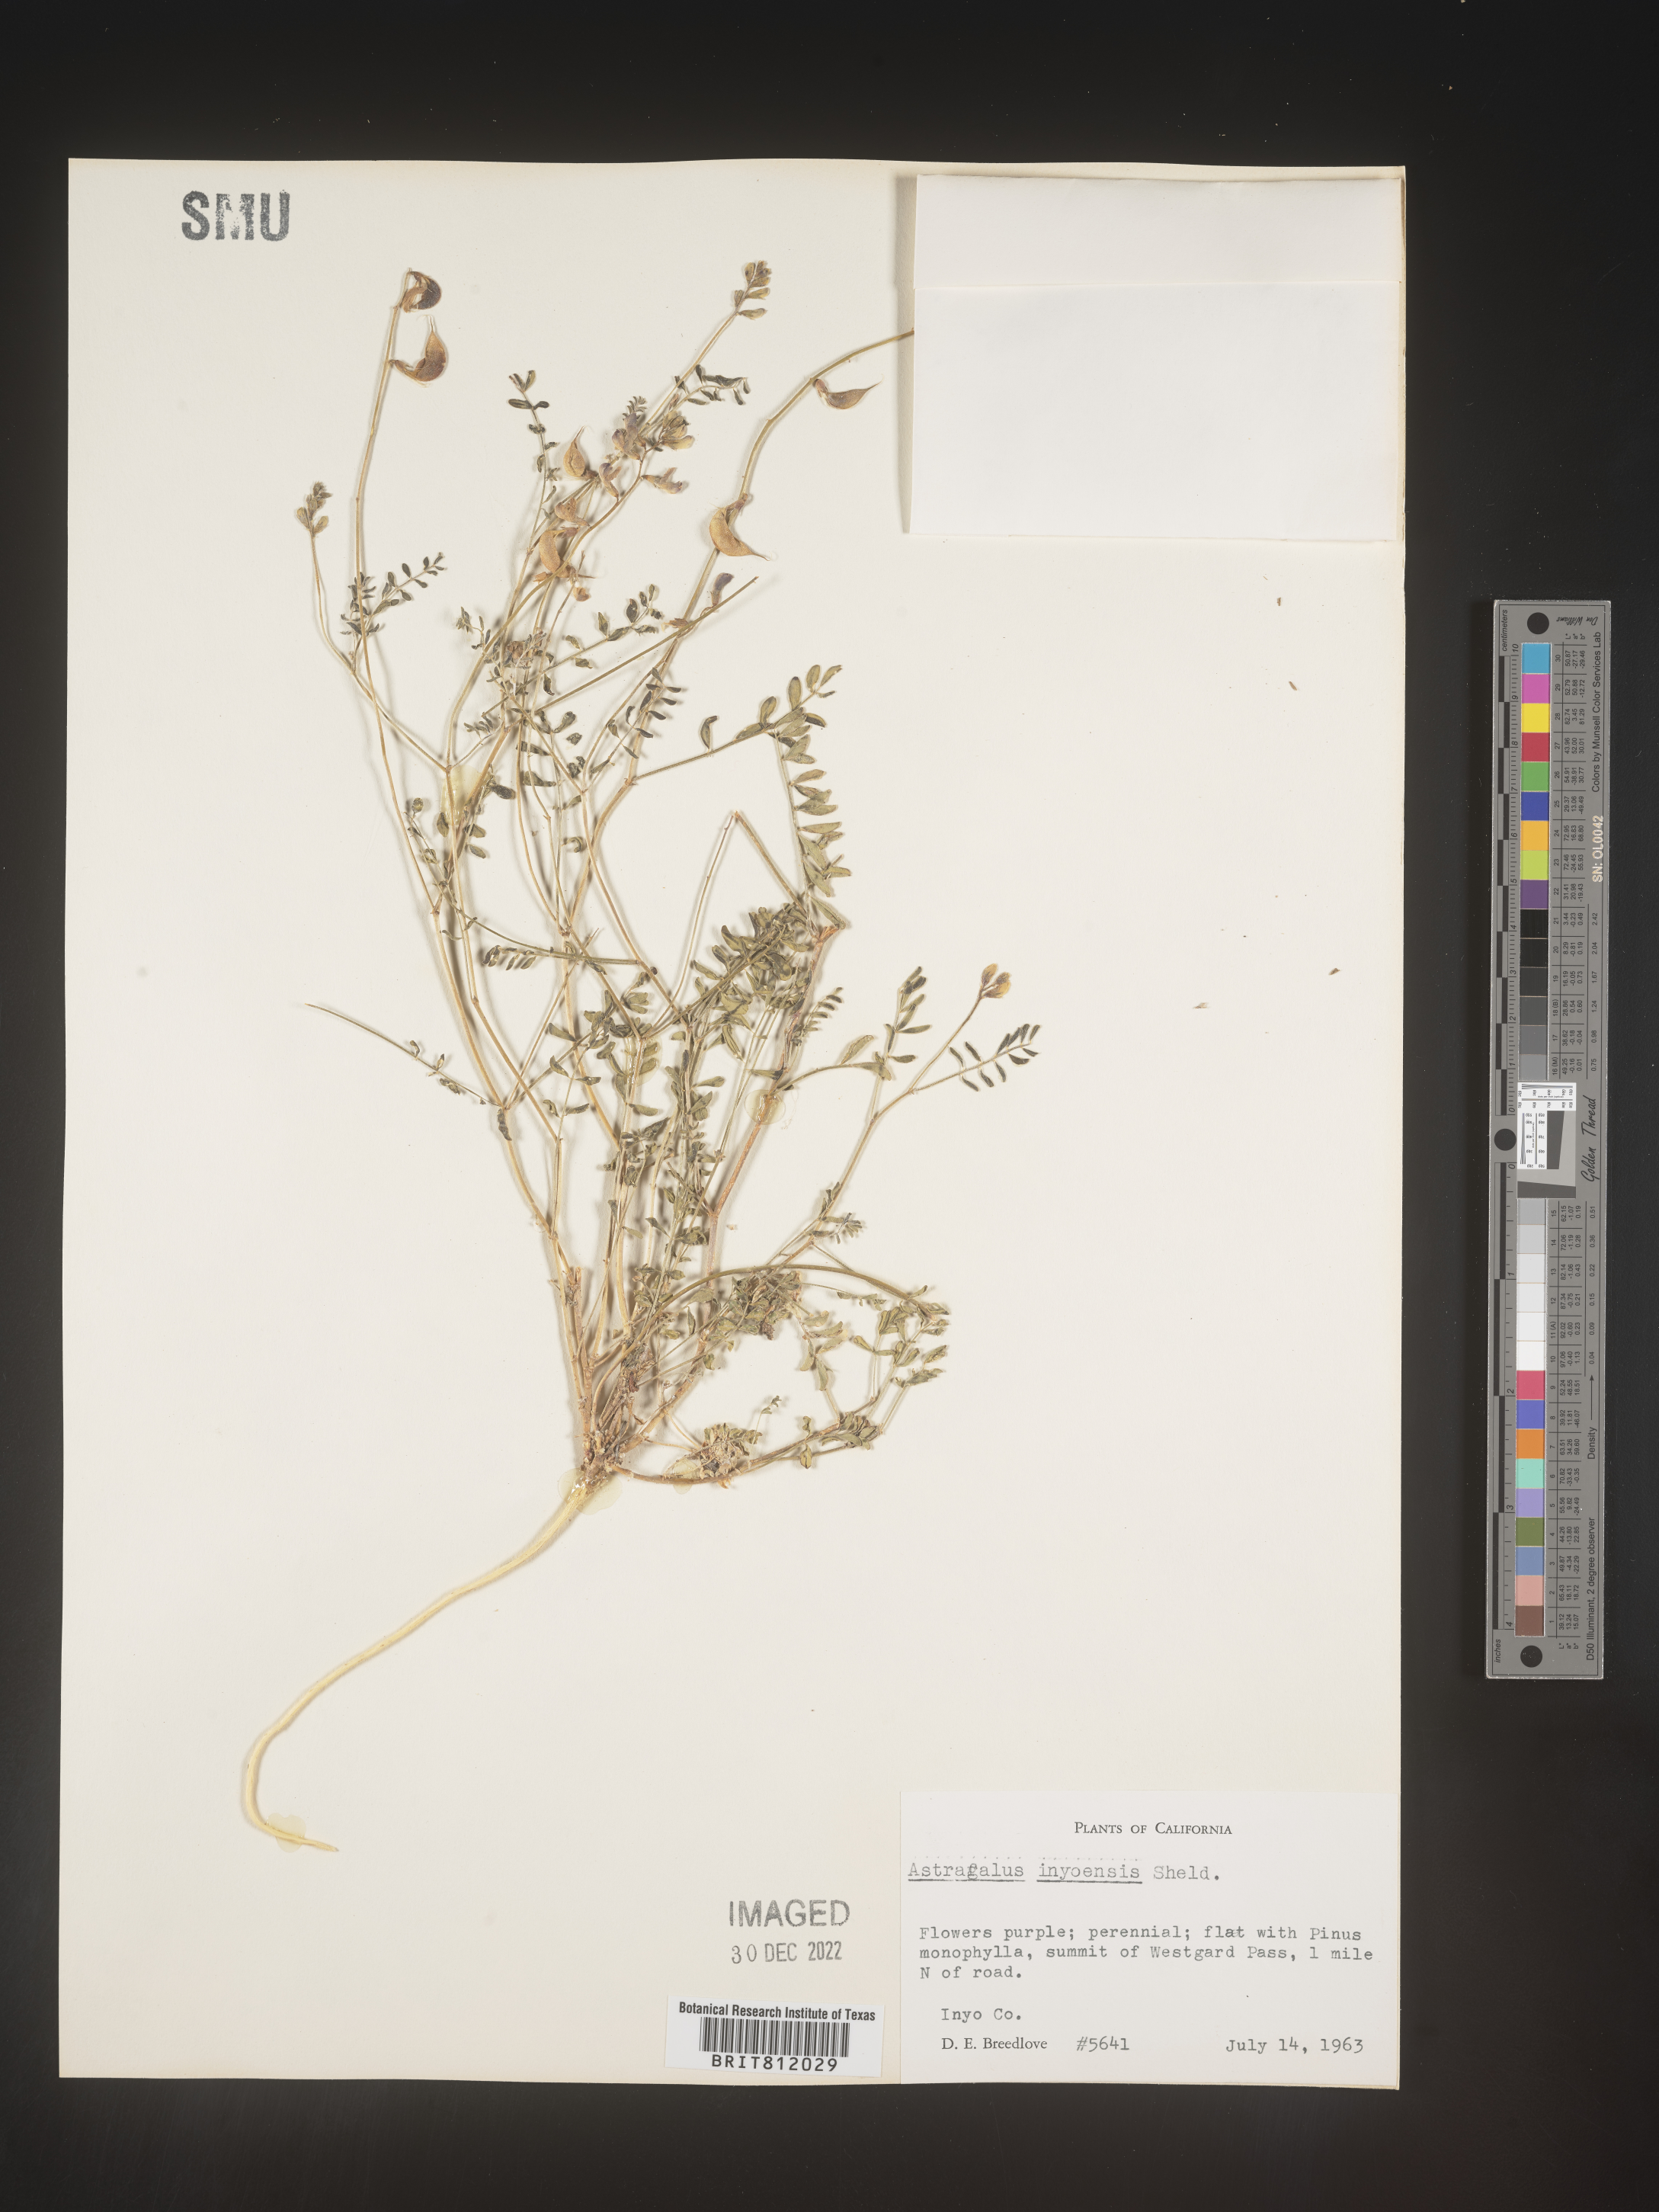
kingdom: Plantae
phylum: Tracheophyta
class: Magnoliopsida
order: Fabales
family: Fabaceae
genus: Astragalus
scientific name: Astragalus inyoensis
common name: Inyo locoweed
